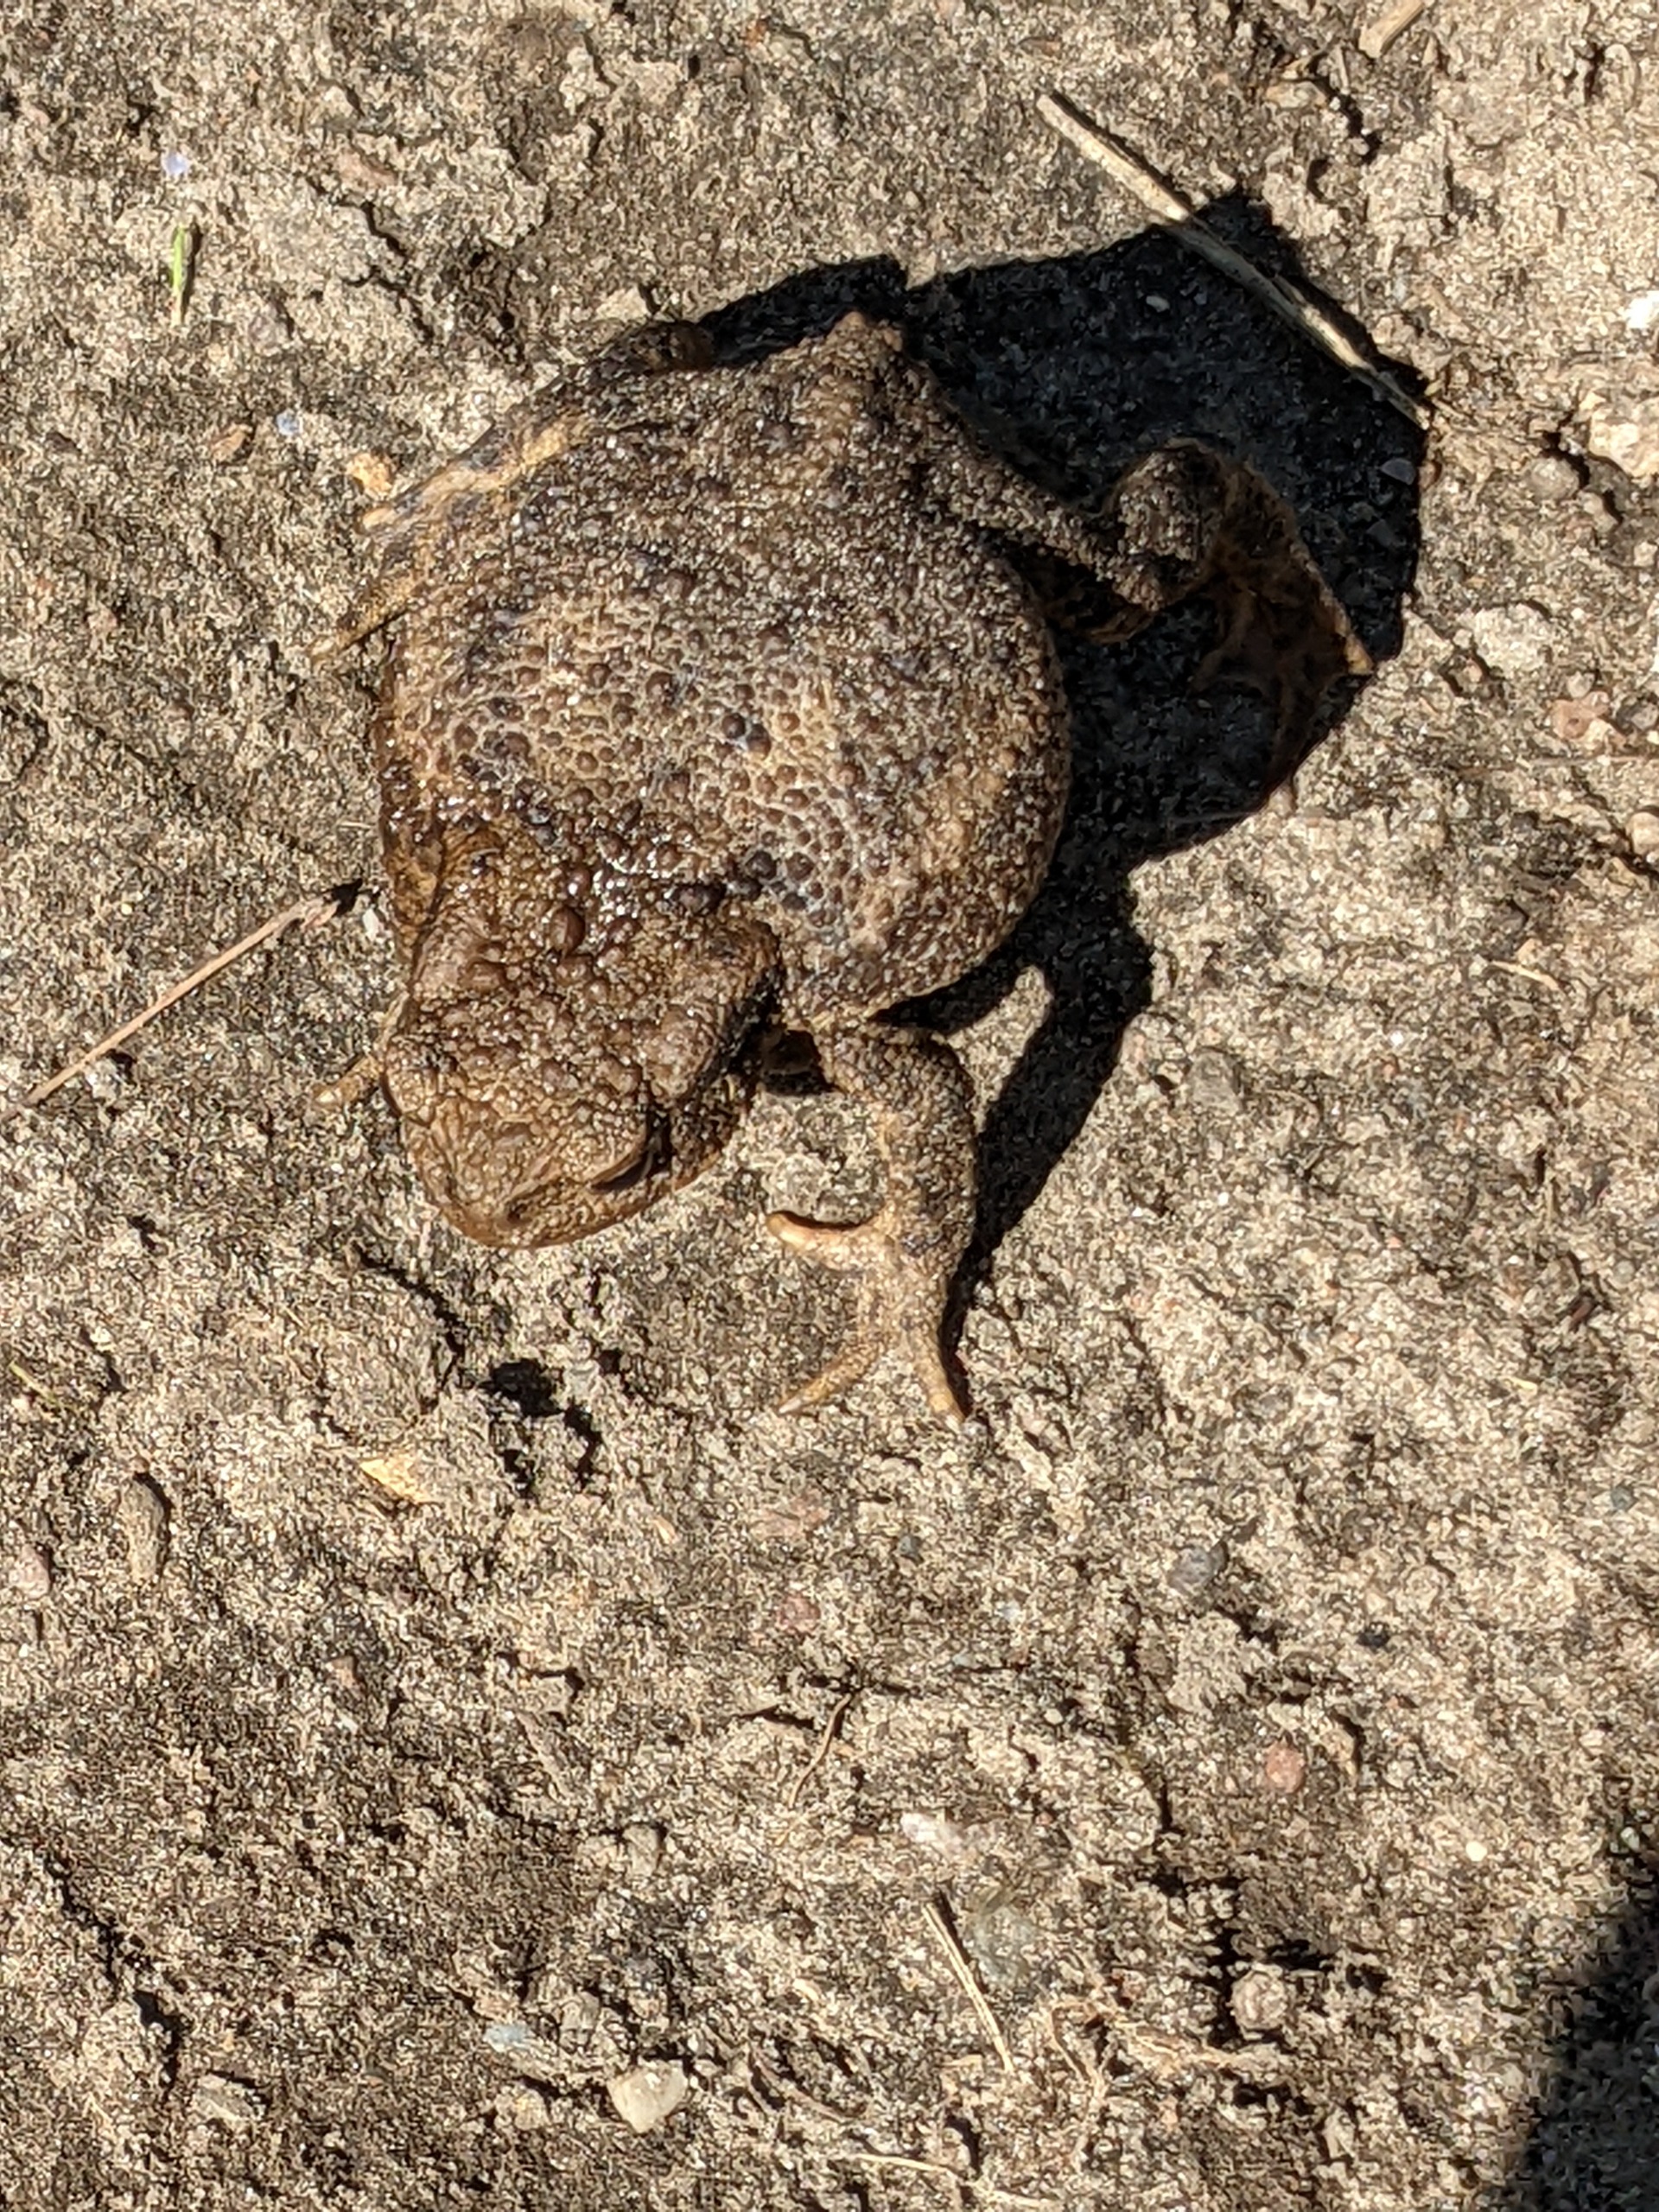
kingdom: Animalia
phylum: Chordata
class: Amphibia
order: Anura
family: Bufonidae
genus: Bufo
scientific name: Bufo bufo
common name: Skrubtudse
